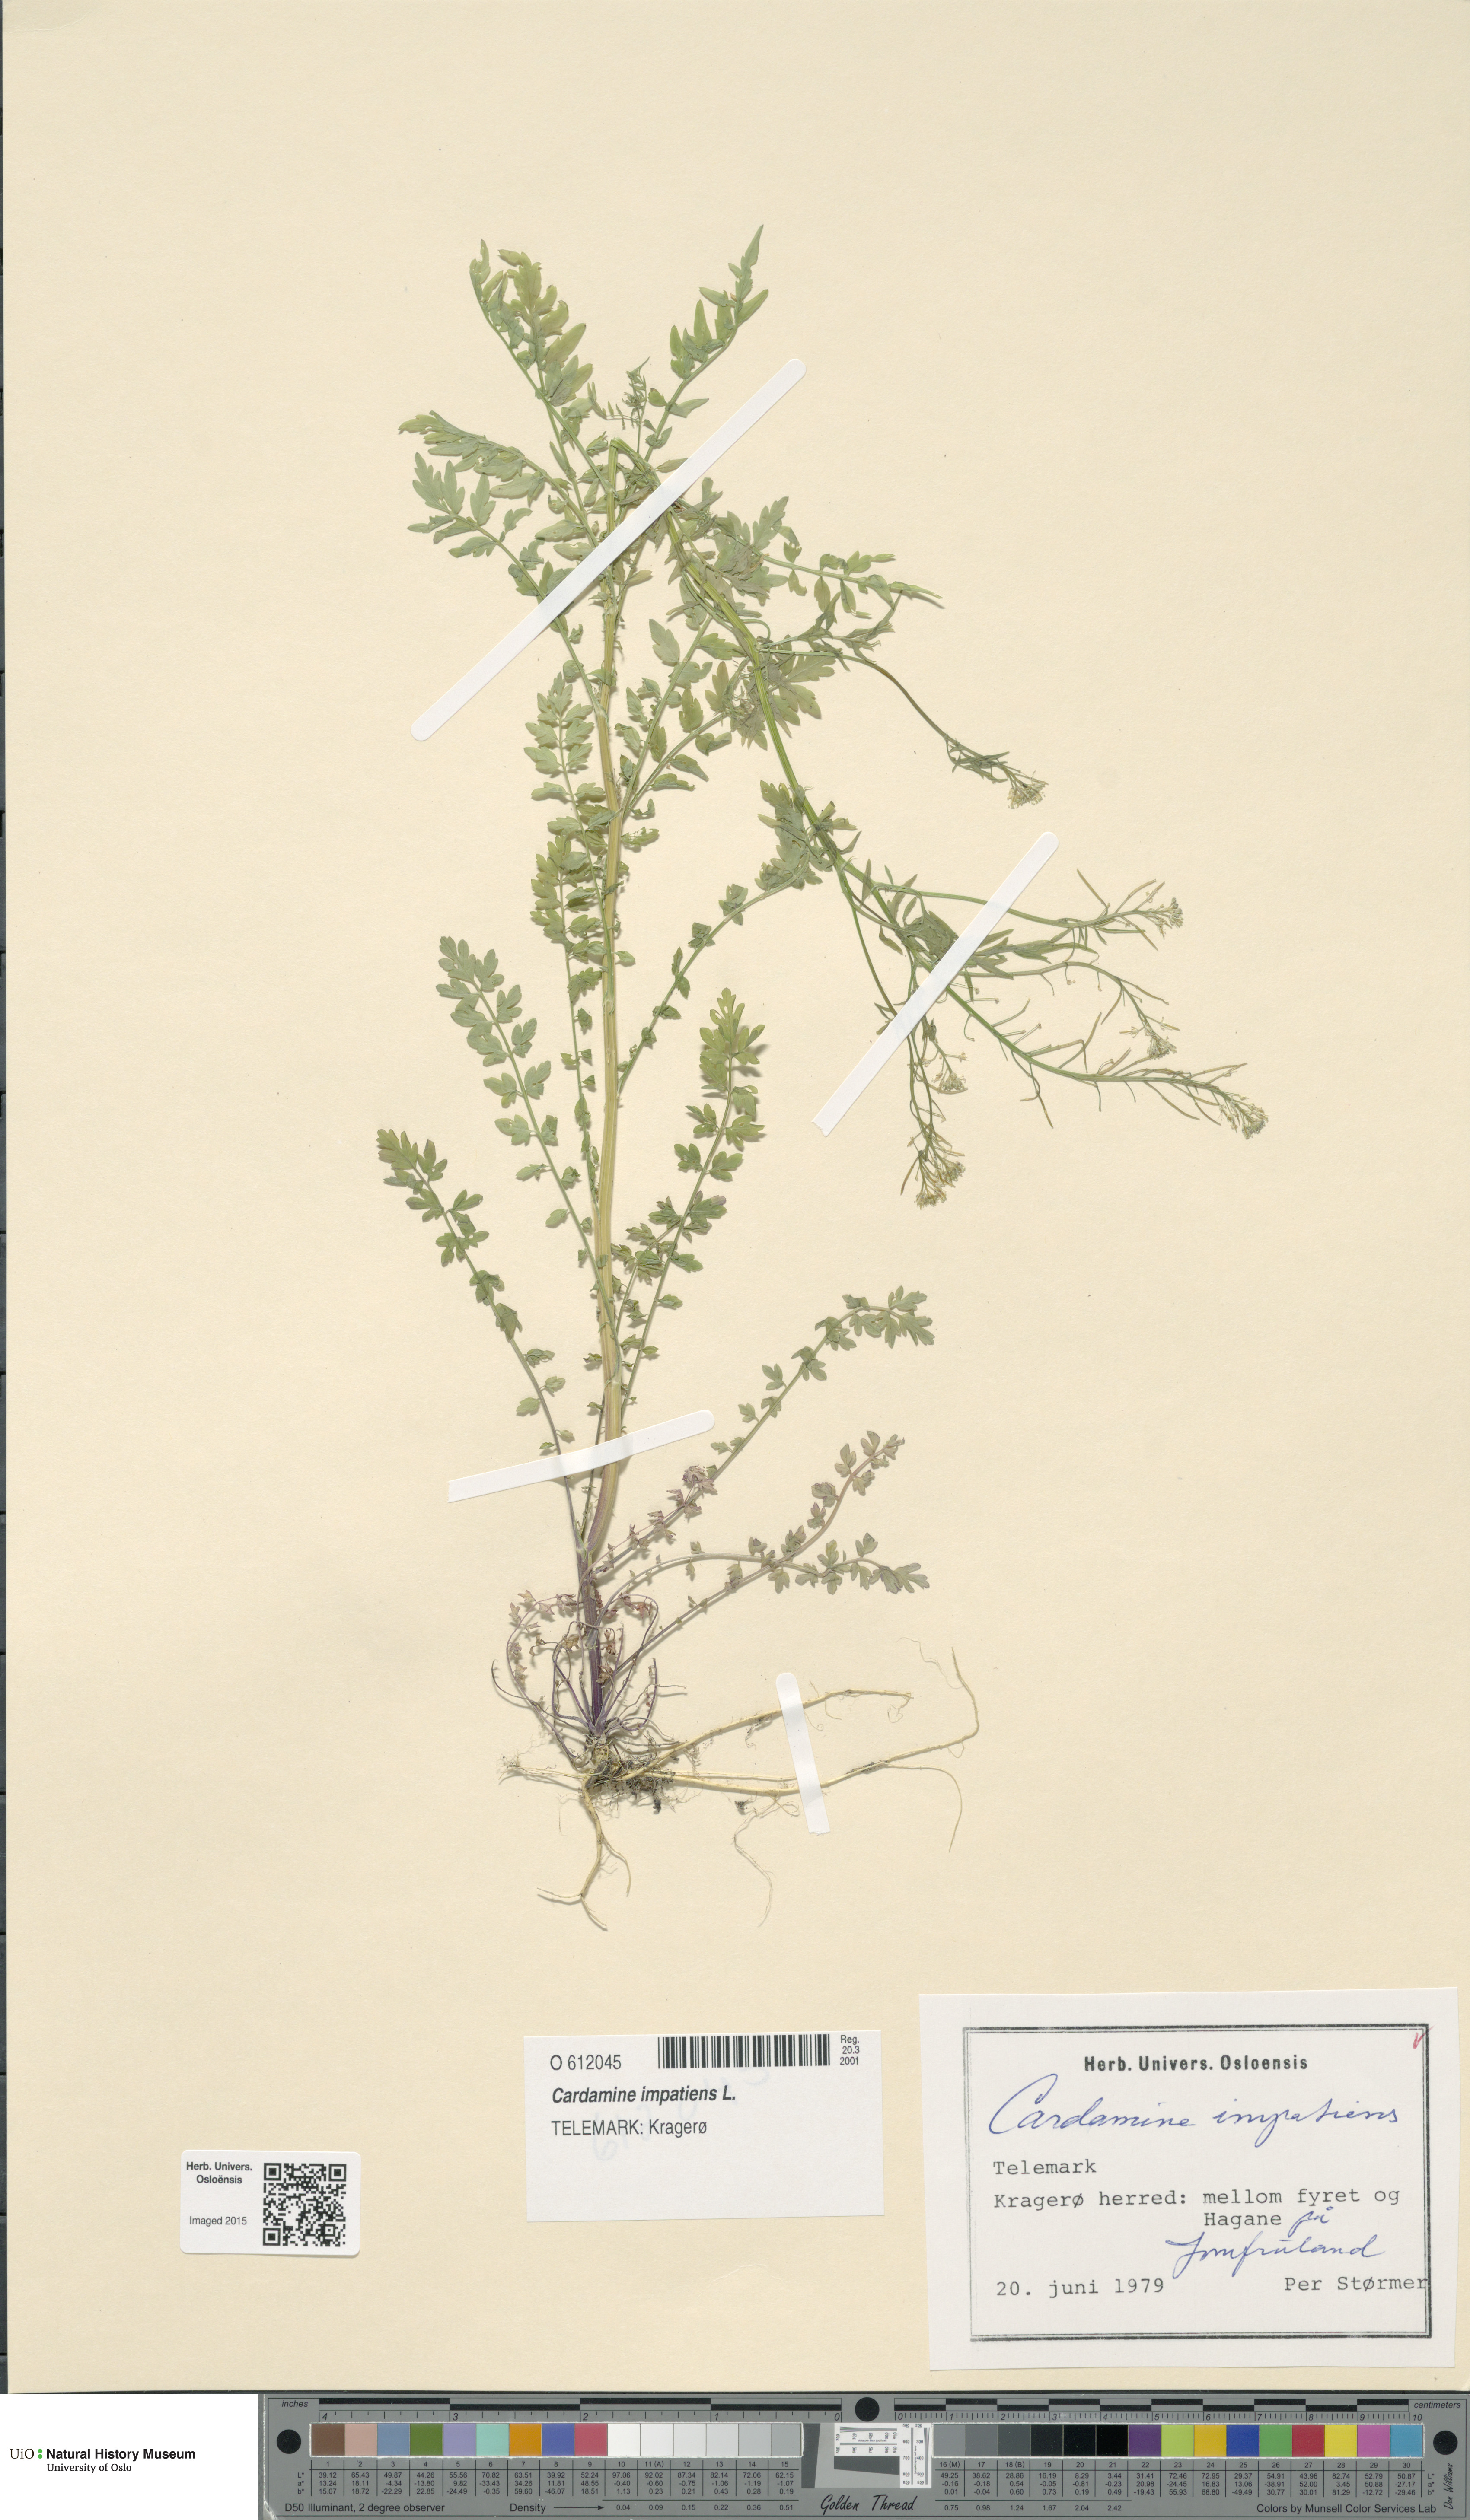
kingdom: Plantae
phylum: Tracheophyta
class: Magnoliopsida
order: Brassicales
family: Brassicaceae
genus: Cardamine
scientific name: Cardamine impatiens
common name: Narrow-leaved bitter-cress
